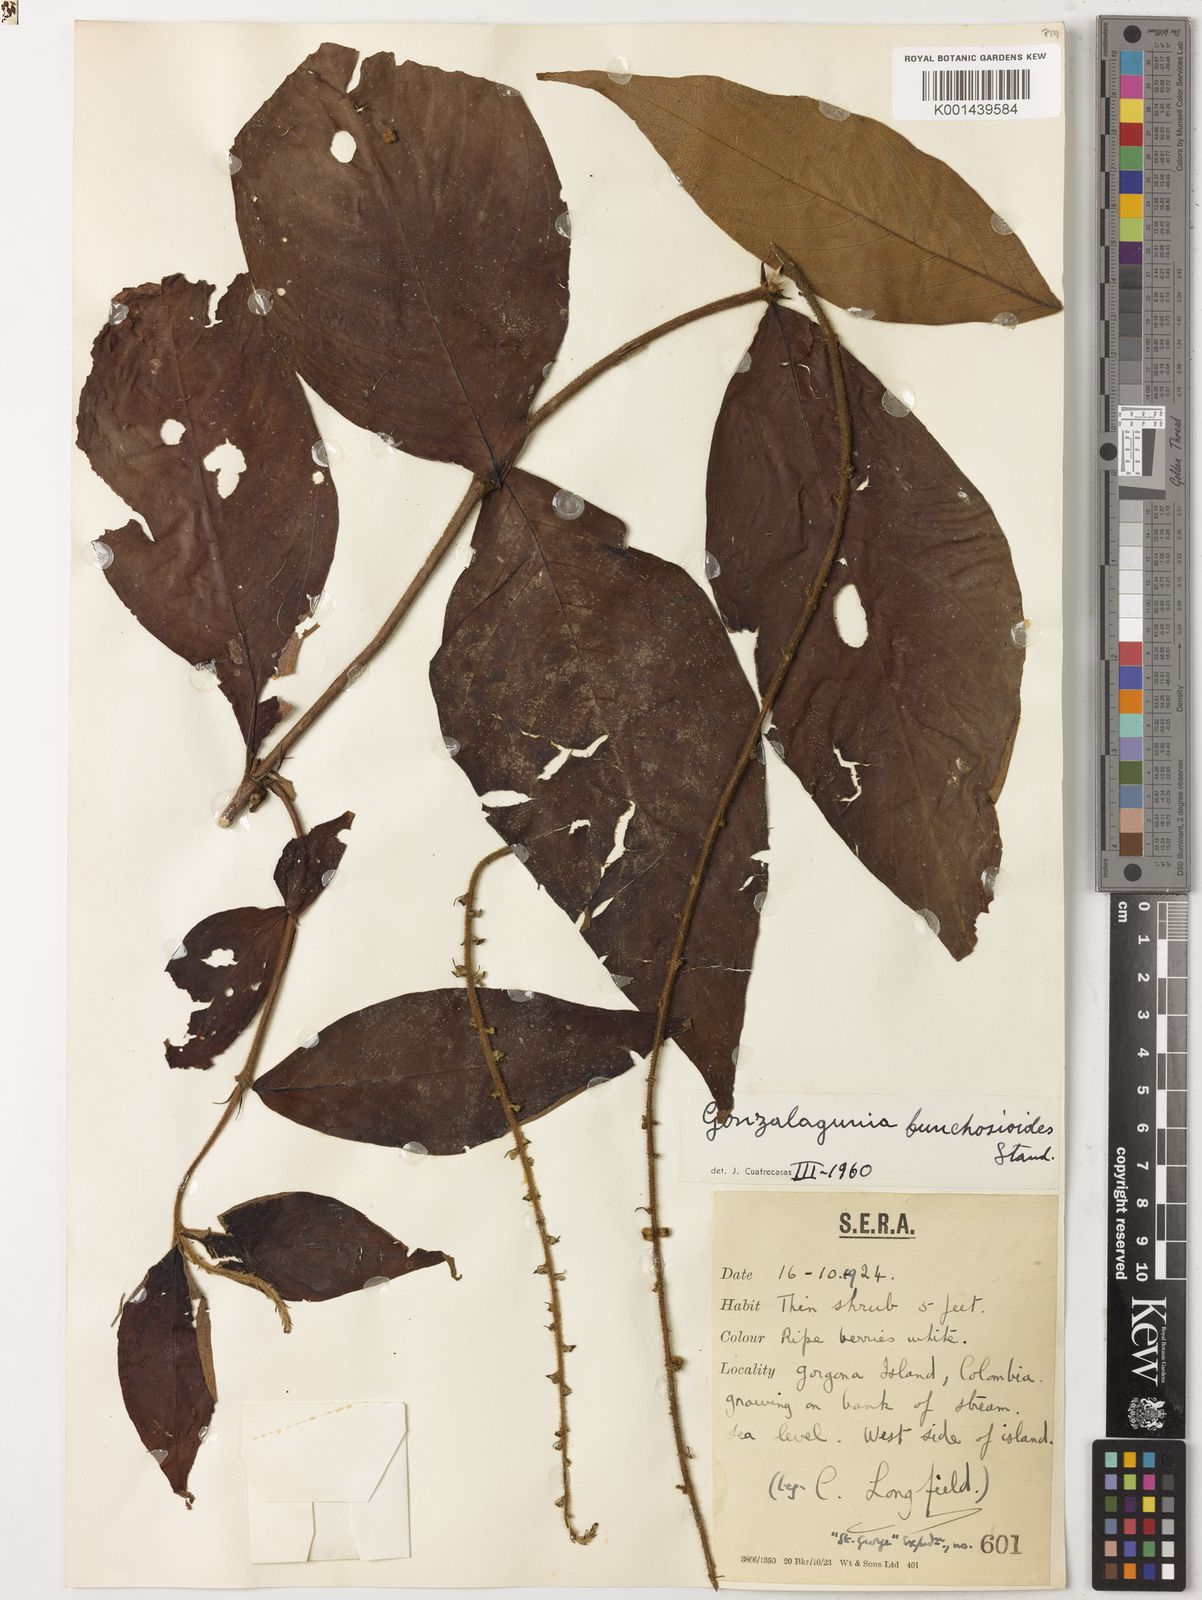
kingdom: Plantae
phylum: Tracheophyta
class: Magnoliopsida
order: Gentianales
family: Rubiaceae
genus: Gonzalagunia
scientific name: Gonzalagunia bunchosioides
